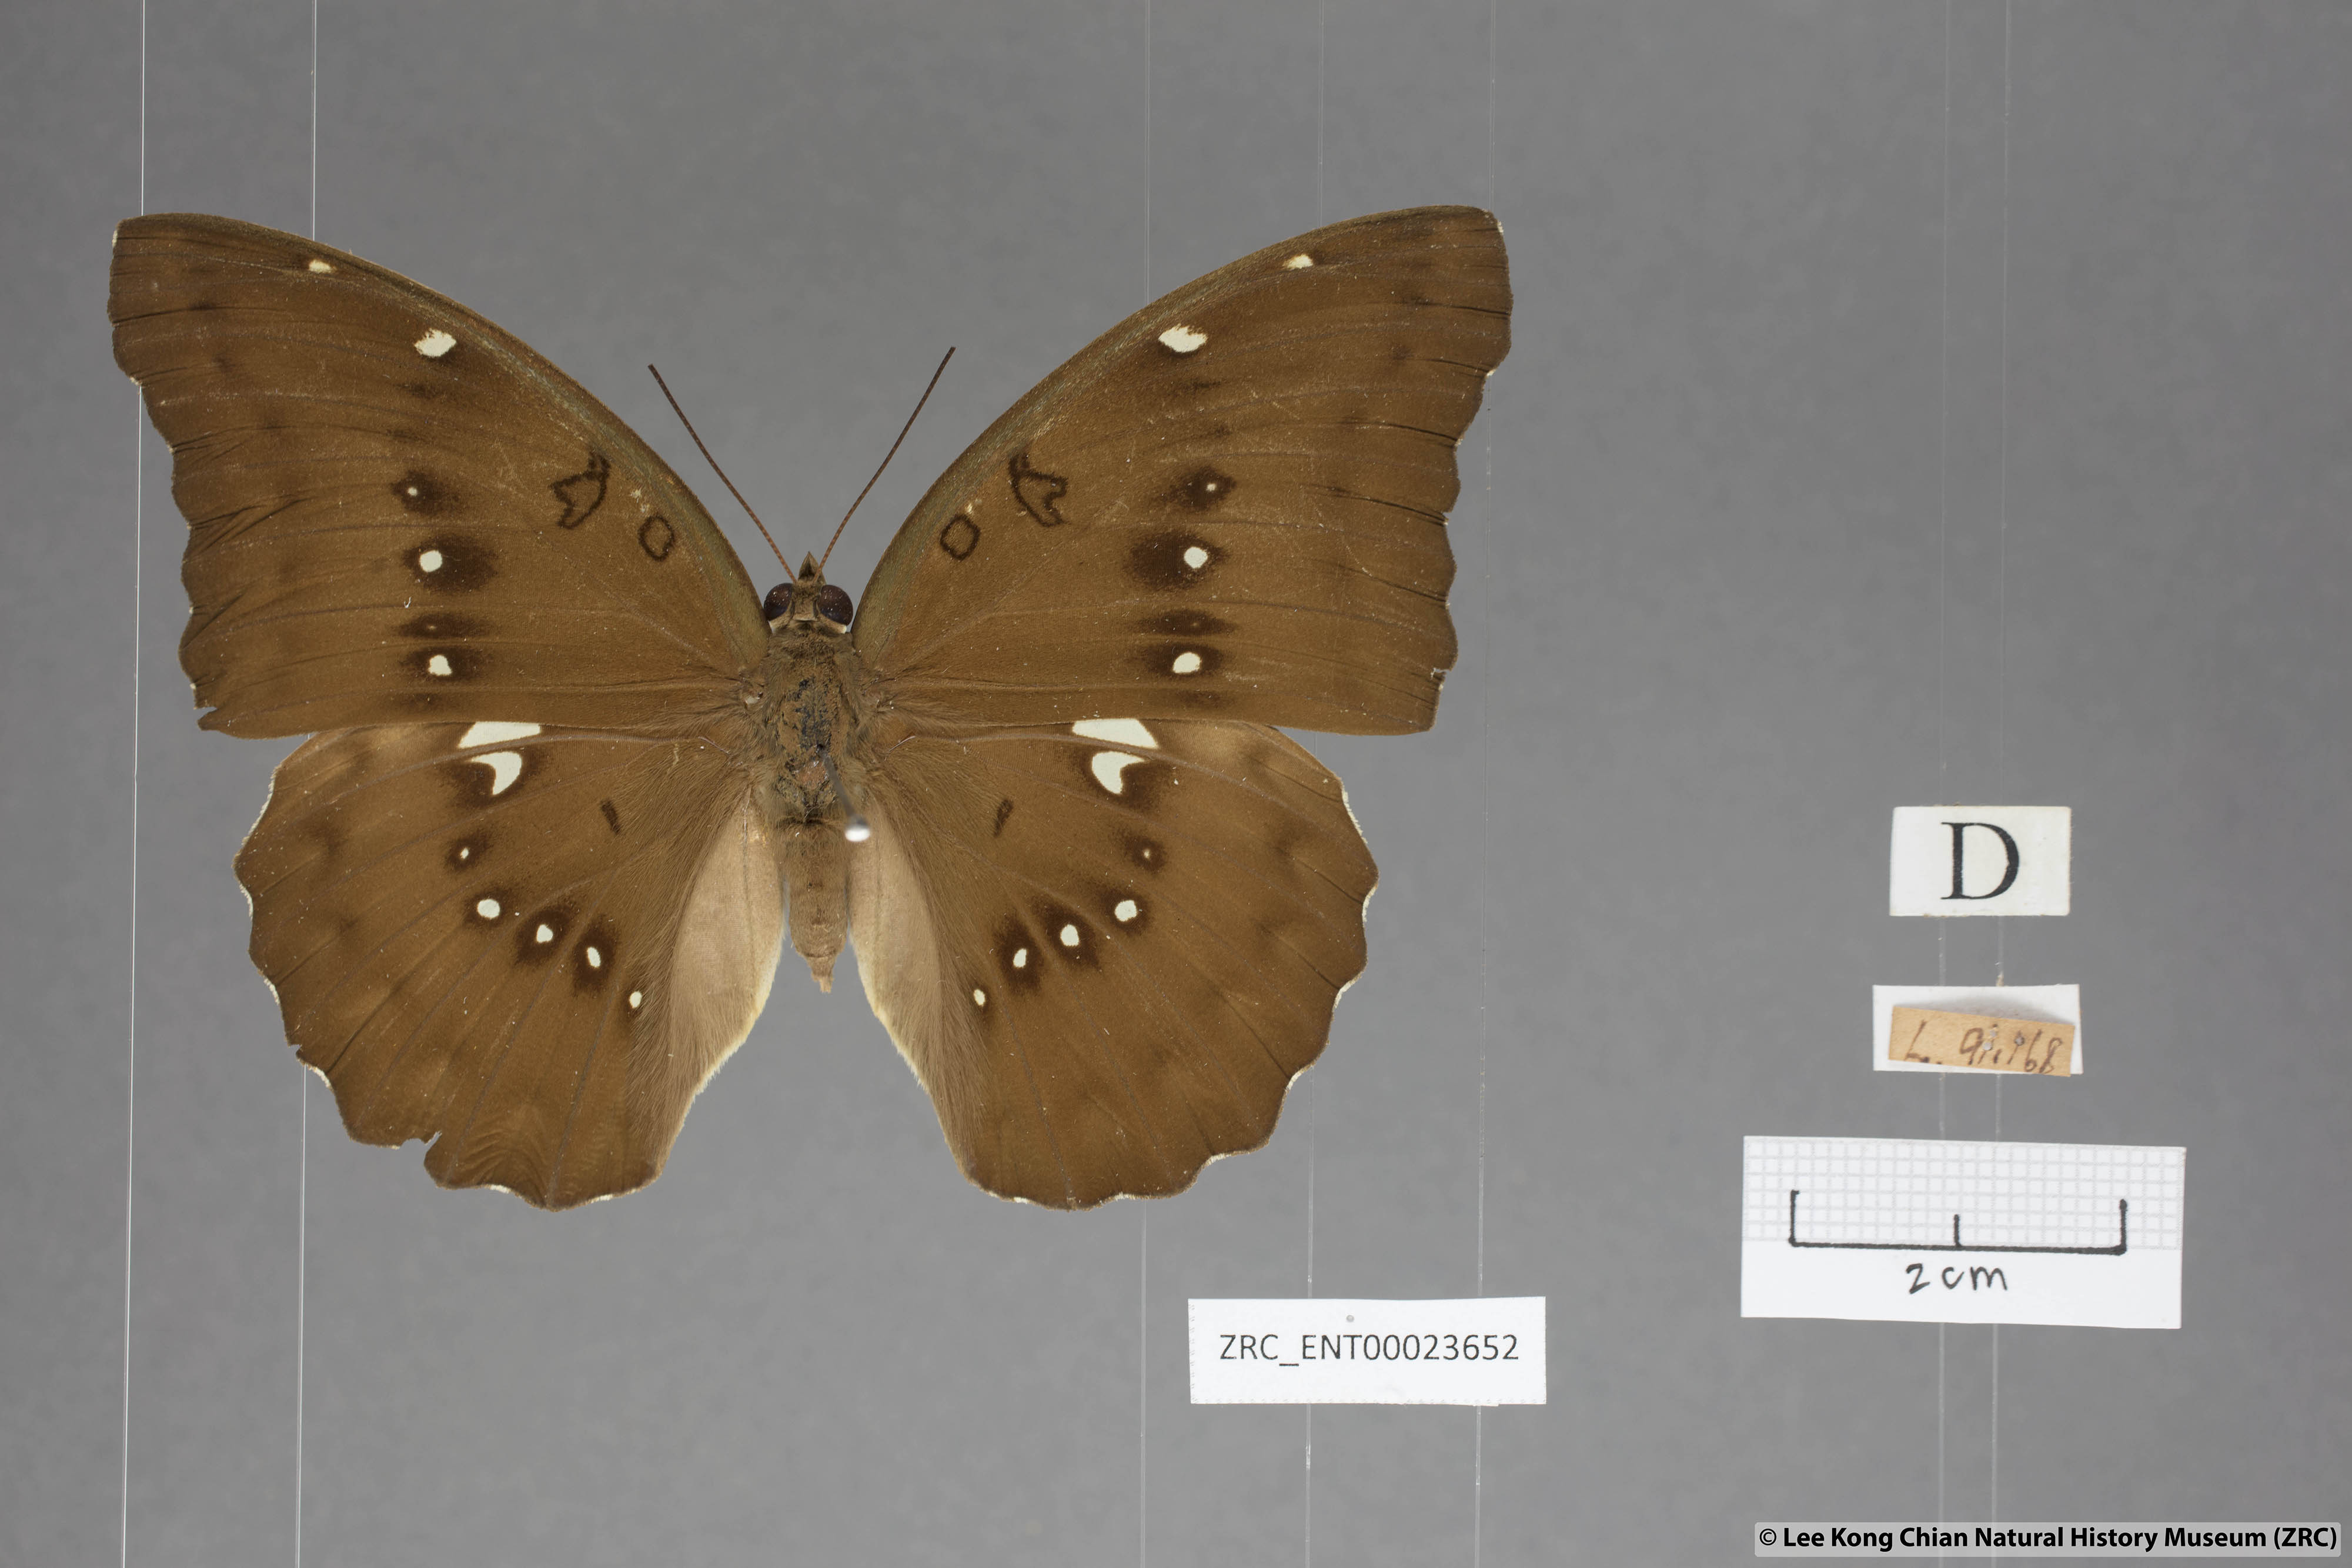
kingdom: Animalia
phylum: Arthropoda
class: Insecta
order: Lepidoptera
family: Nymphalidae
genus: Euthalia
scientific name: Euthalia Bassarona dunya
